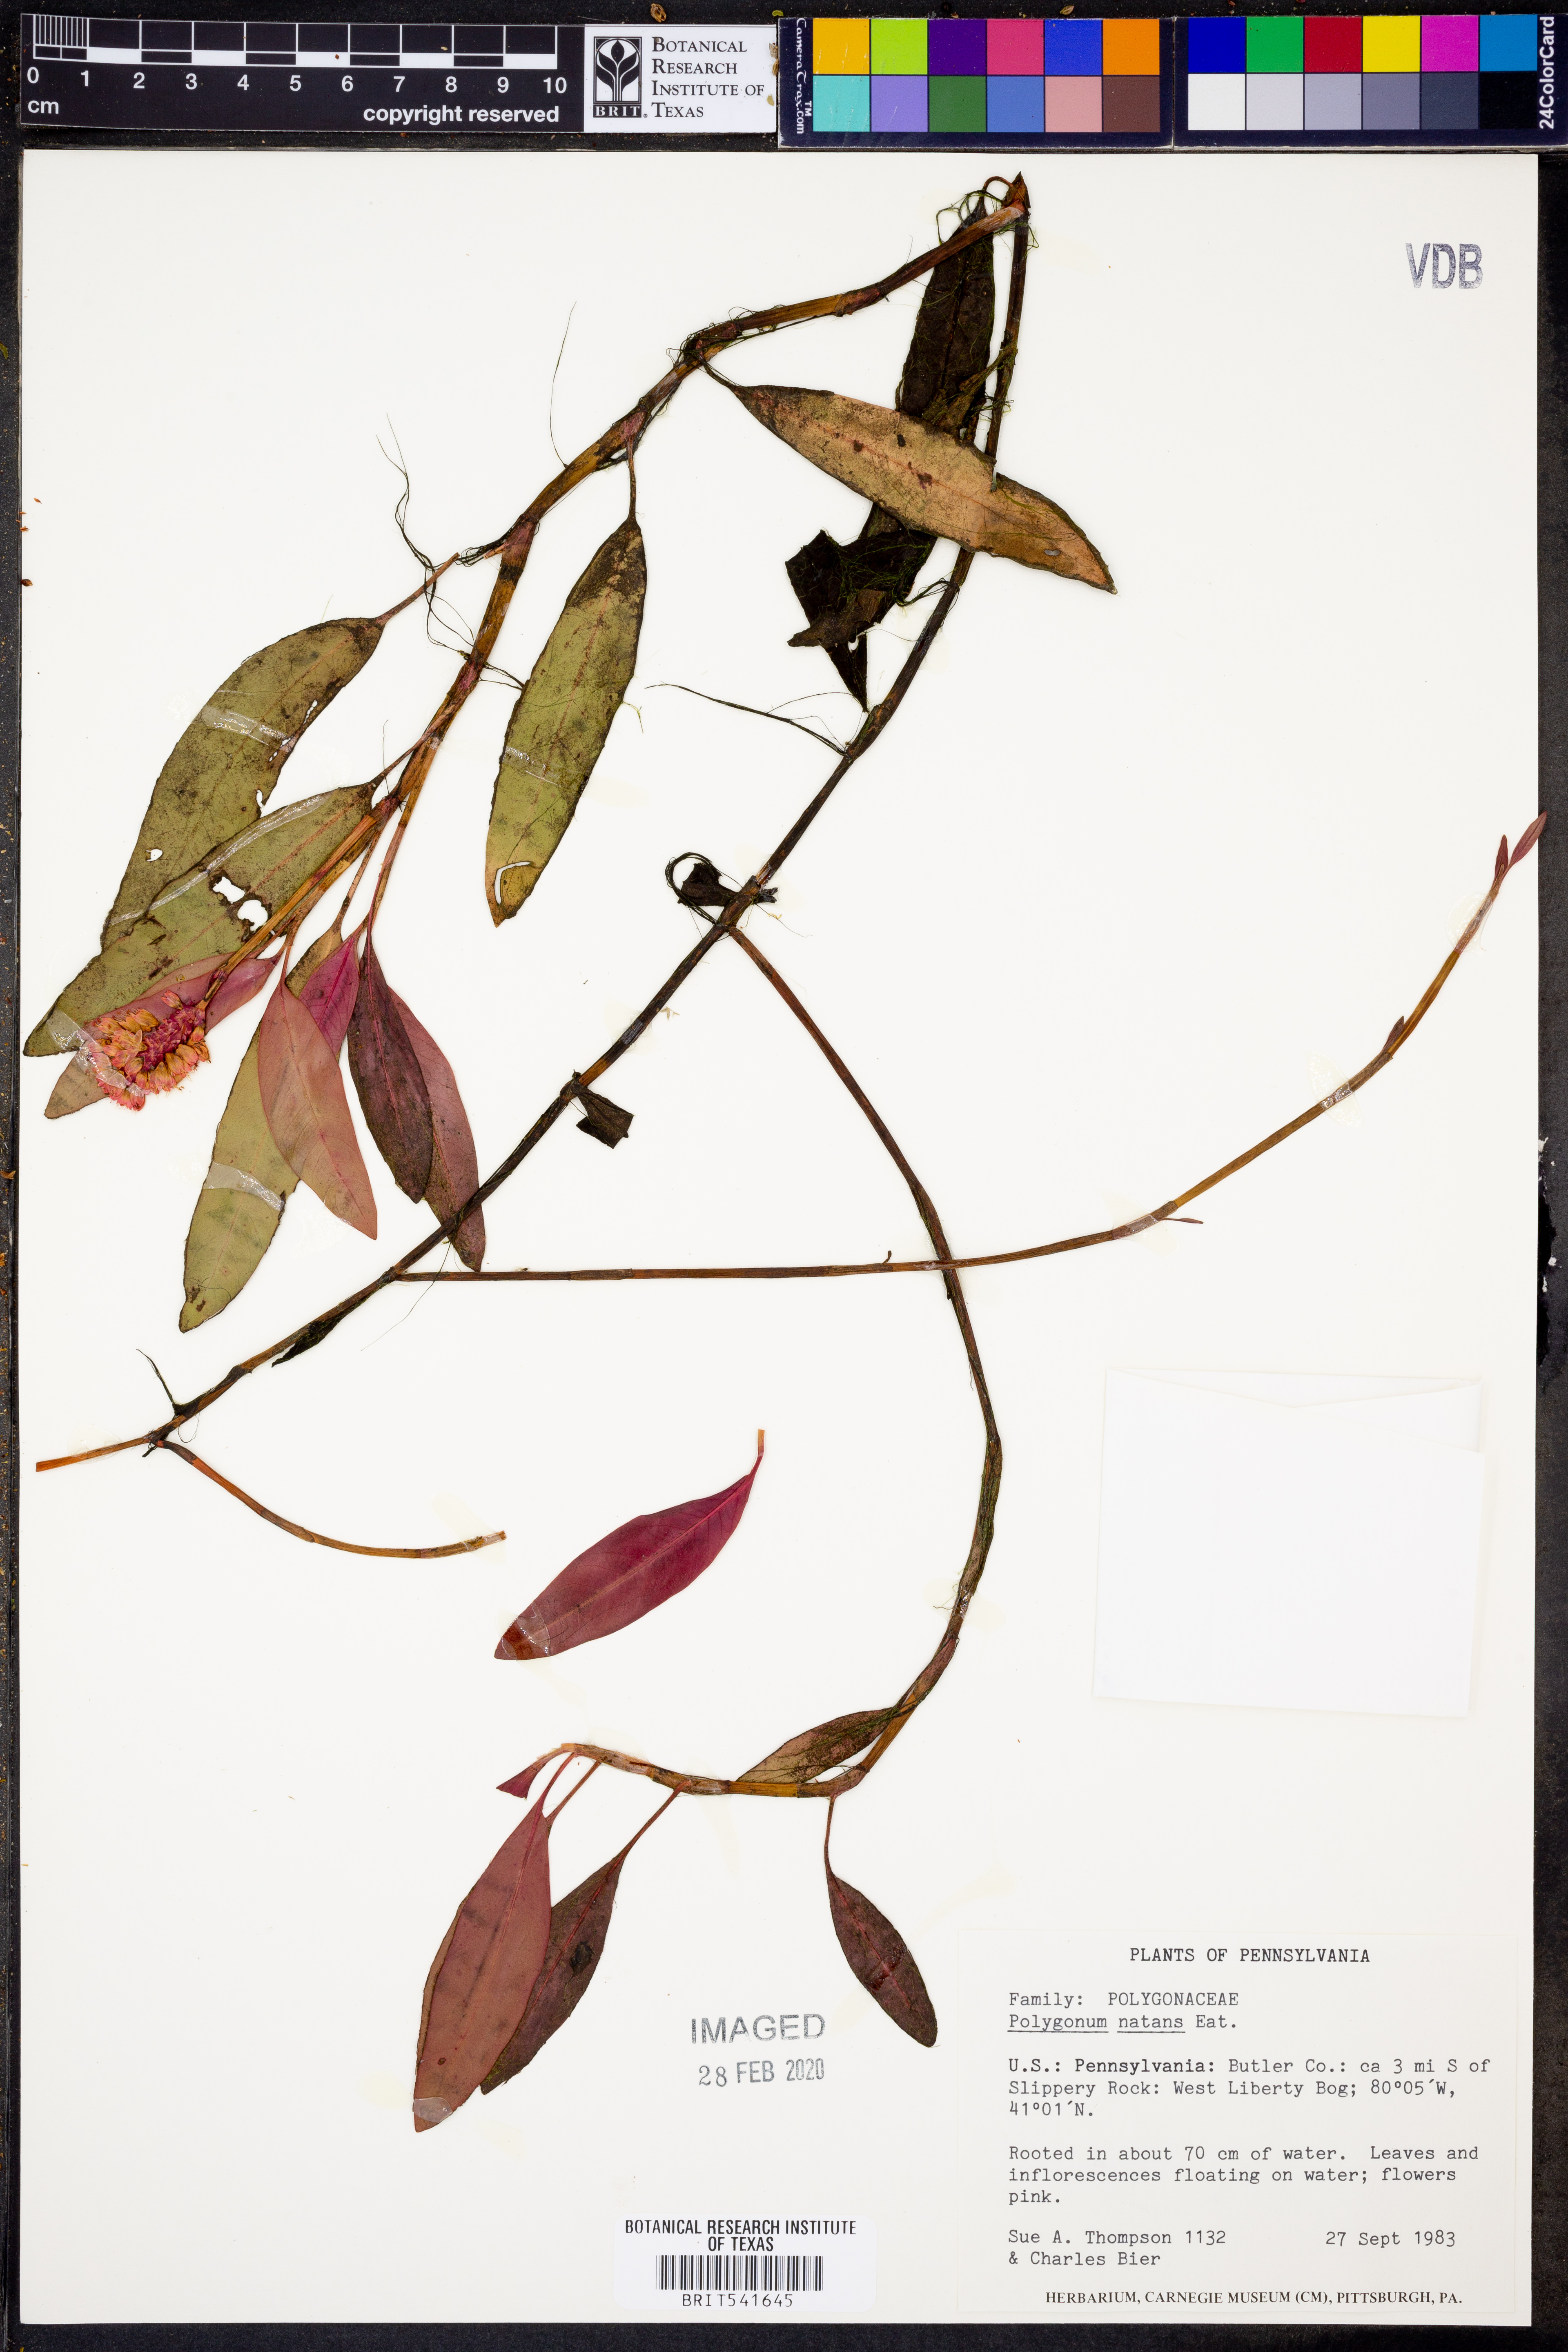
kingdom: Plantae
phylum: Tracheophyta
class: Magnoliopsida
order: Caryophyllales
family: Polygonaceae
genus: Persicaria
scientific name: Persicaria amphibia
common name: Amphibious bistort
